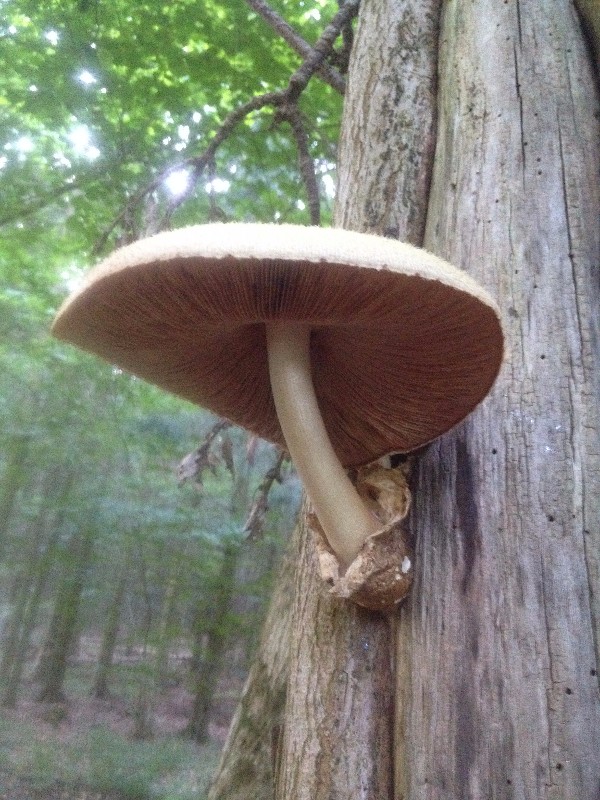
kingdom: Fungi
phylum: Basidiomycota
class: Agaricomycetes
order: Agaricales
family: Pluteaceae
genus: Volvariella
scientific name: Volvariella bombycina
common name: silkehåret posesvamp
